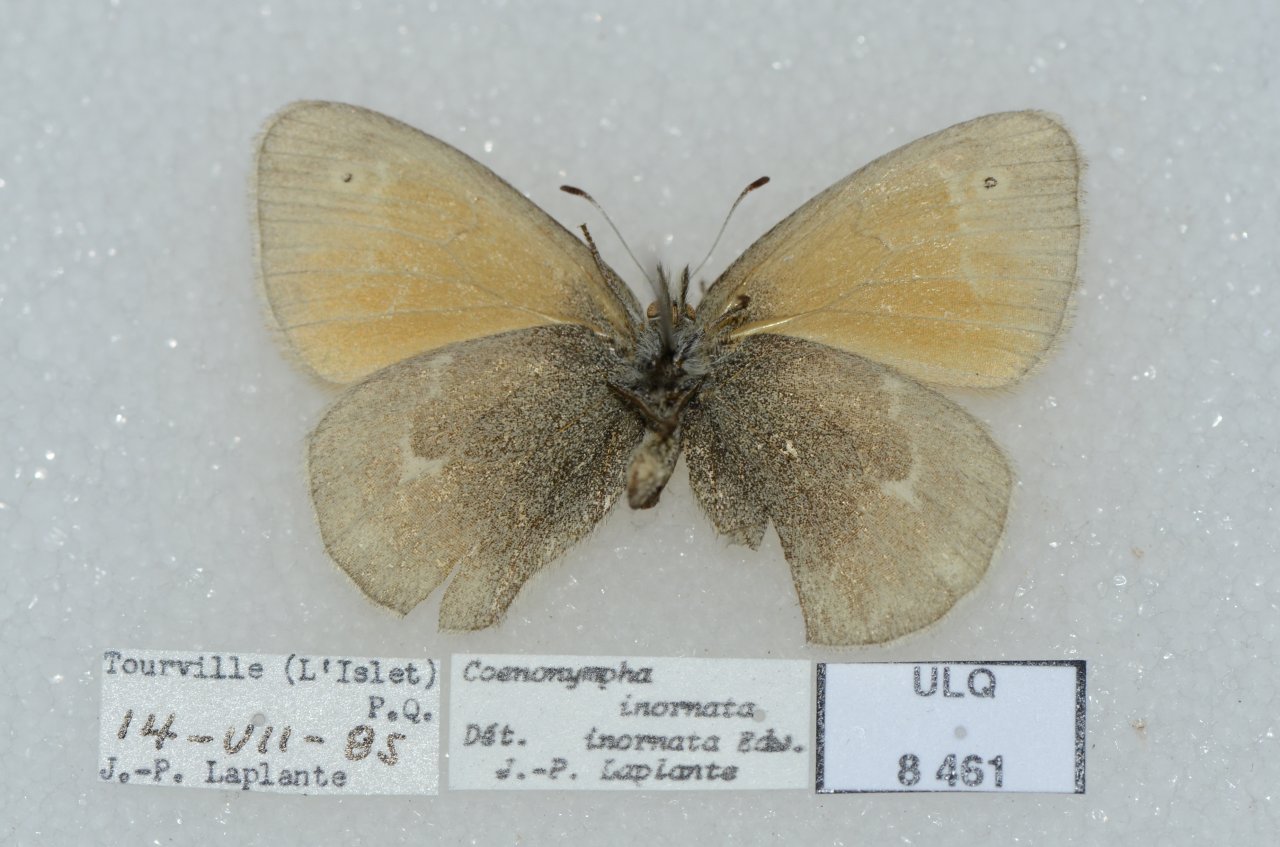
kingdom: Animalia
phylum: Arthropoda
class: Insecta
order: Lepidoptera
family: Nymphalidae
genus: Coenonympha
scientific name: Coenonympha tullia
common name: Large Heath
